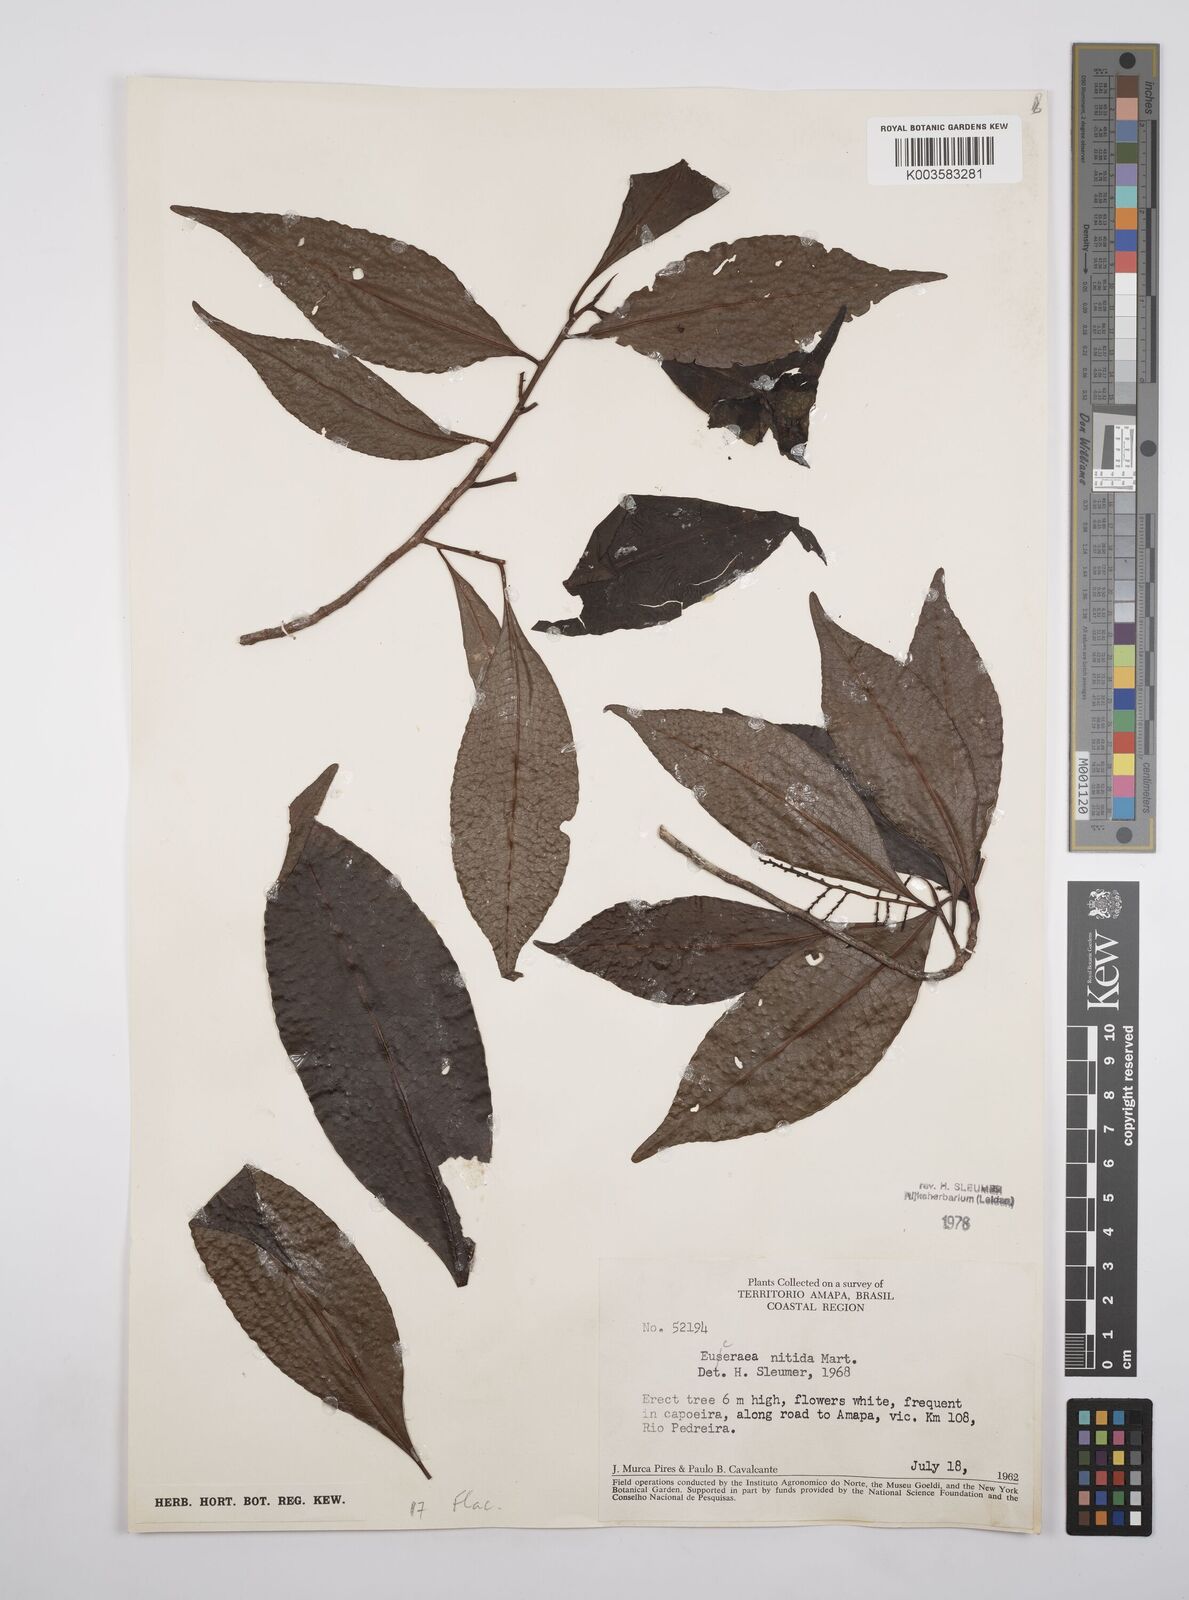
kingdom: Plantae
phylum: Tracheophyta
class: Magnoliopsida
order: Malpighiales
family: Salicaceae
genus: Casearia
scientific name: Casearia euceraea
